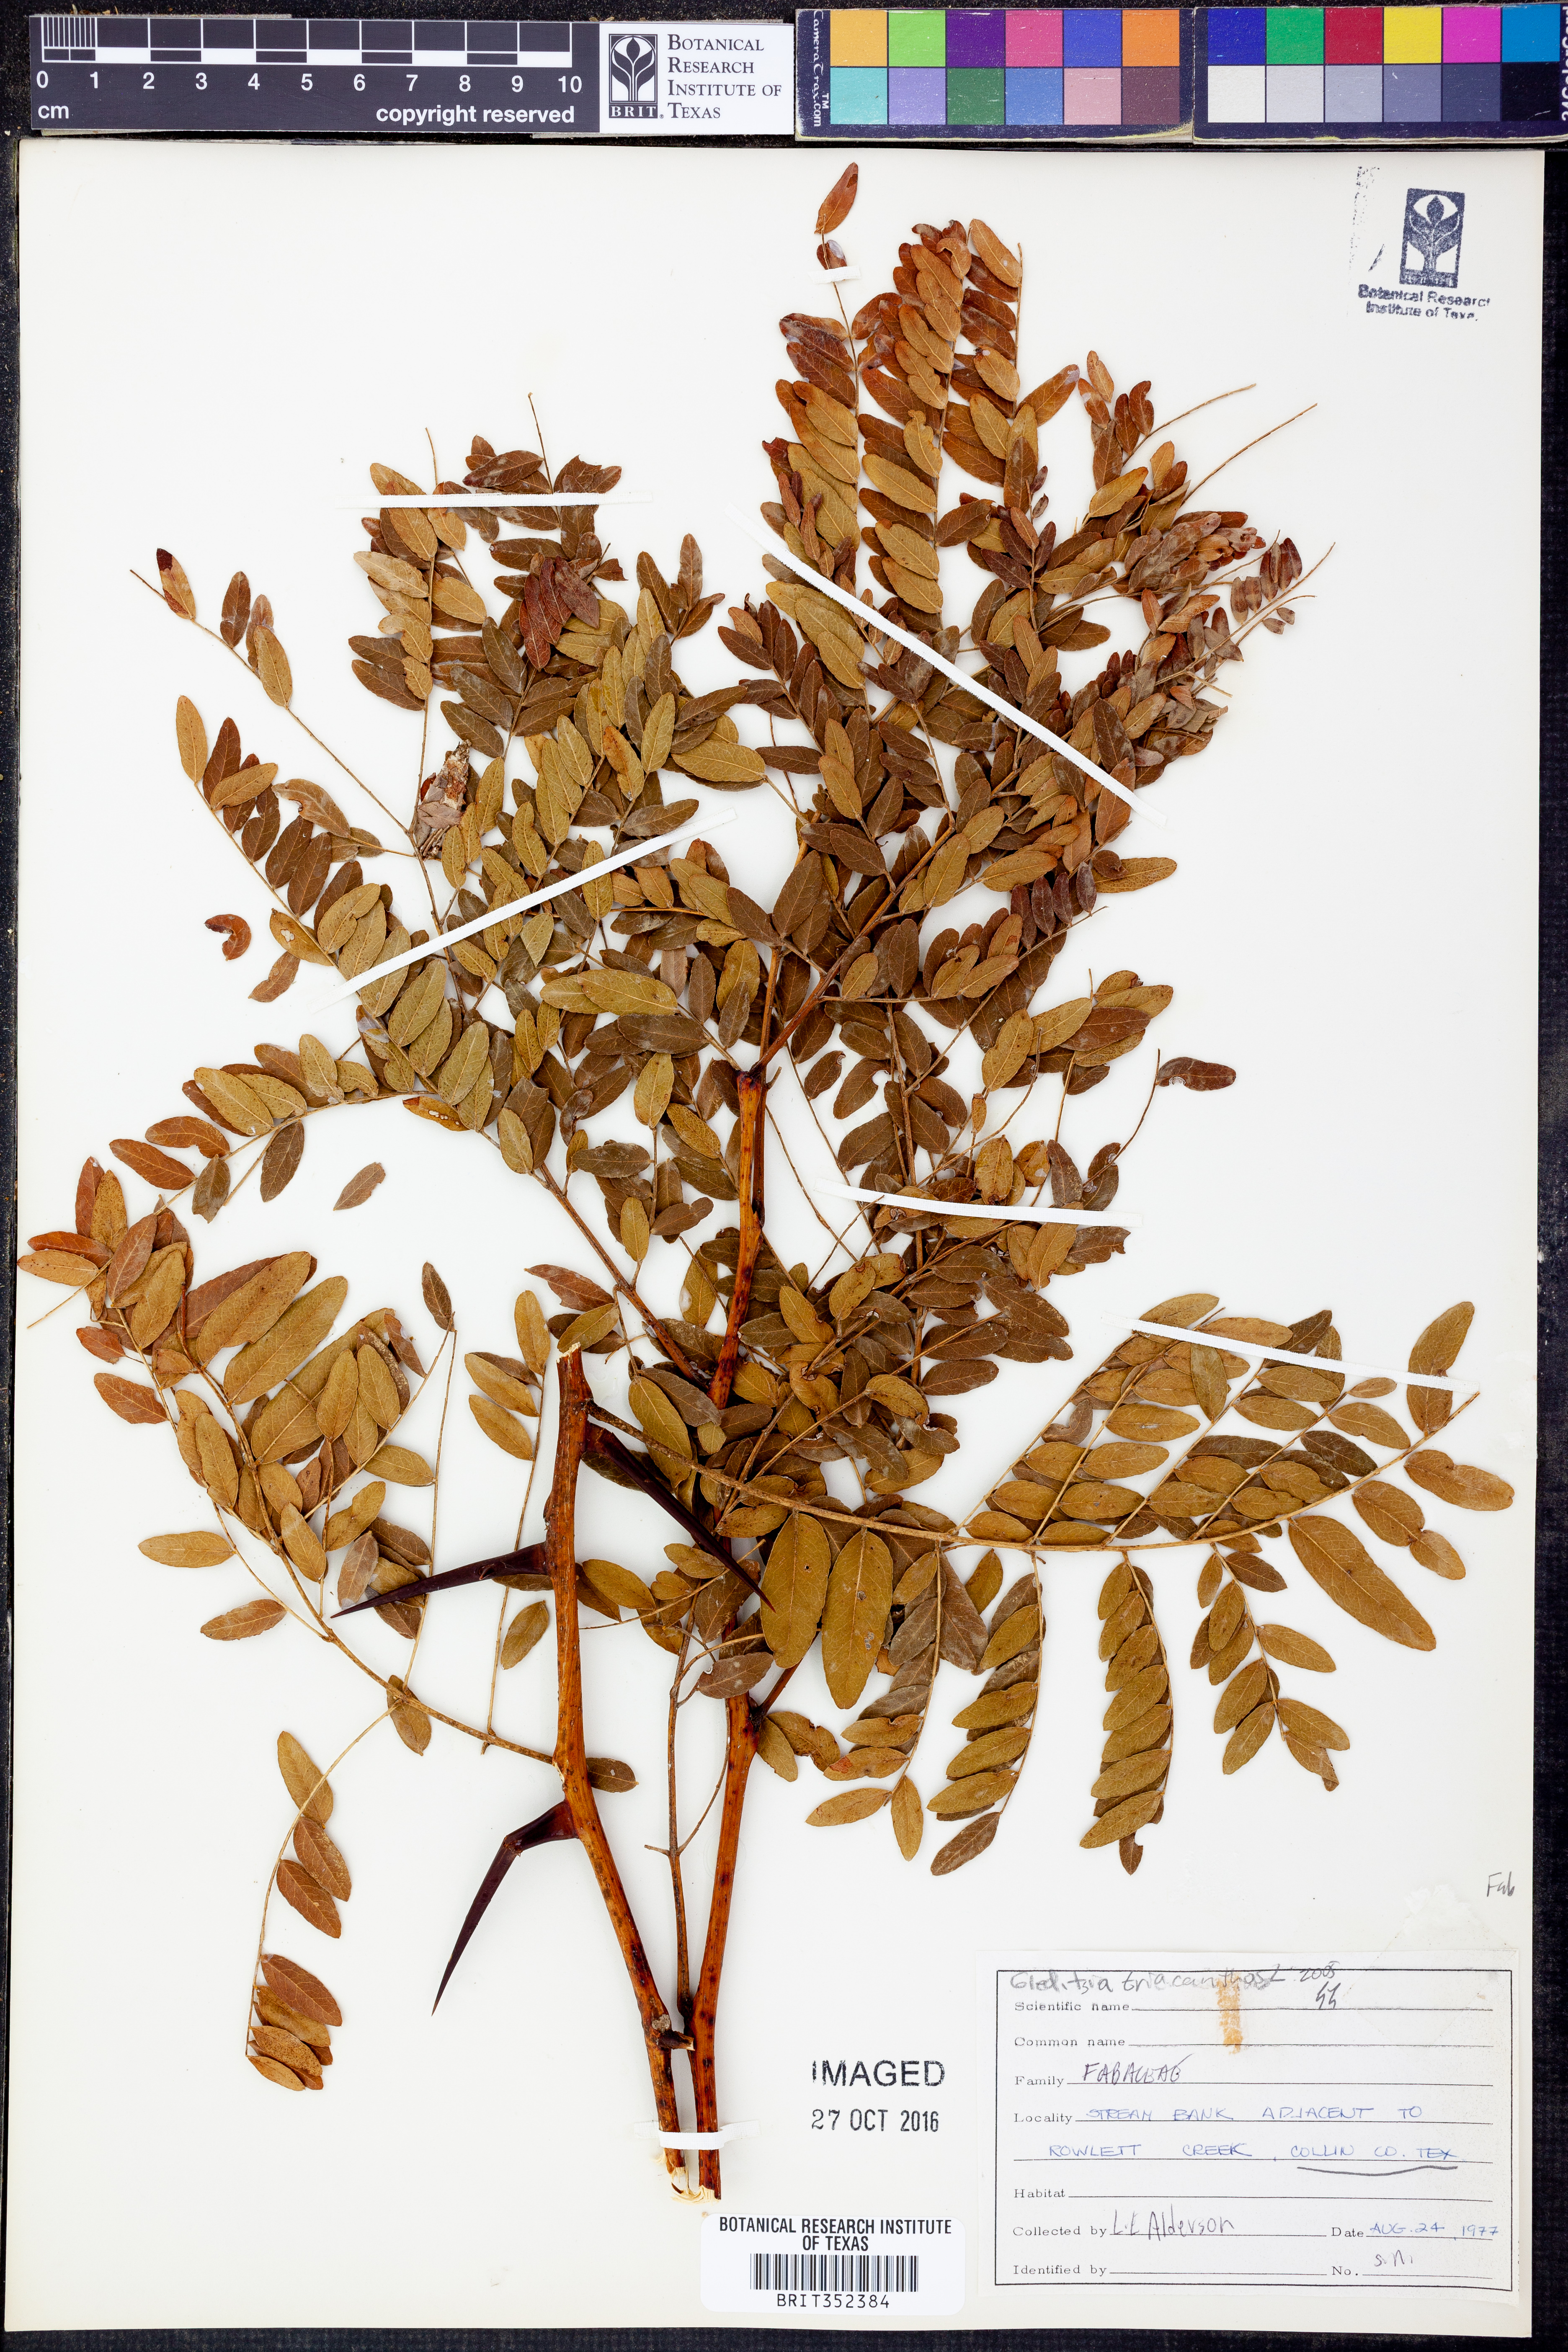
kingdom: Plantae
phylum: Tracheophyta
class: Magnoliopsida
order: Fabales
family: Fabaceae
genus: Gleditsia
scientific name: Gleditsia triacanthos
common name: Common honeylocust
